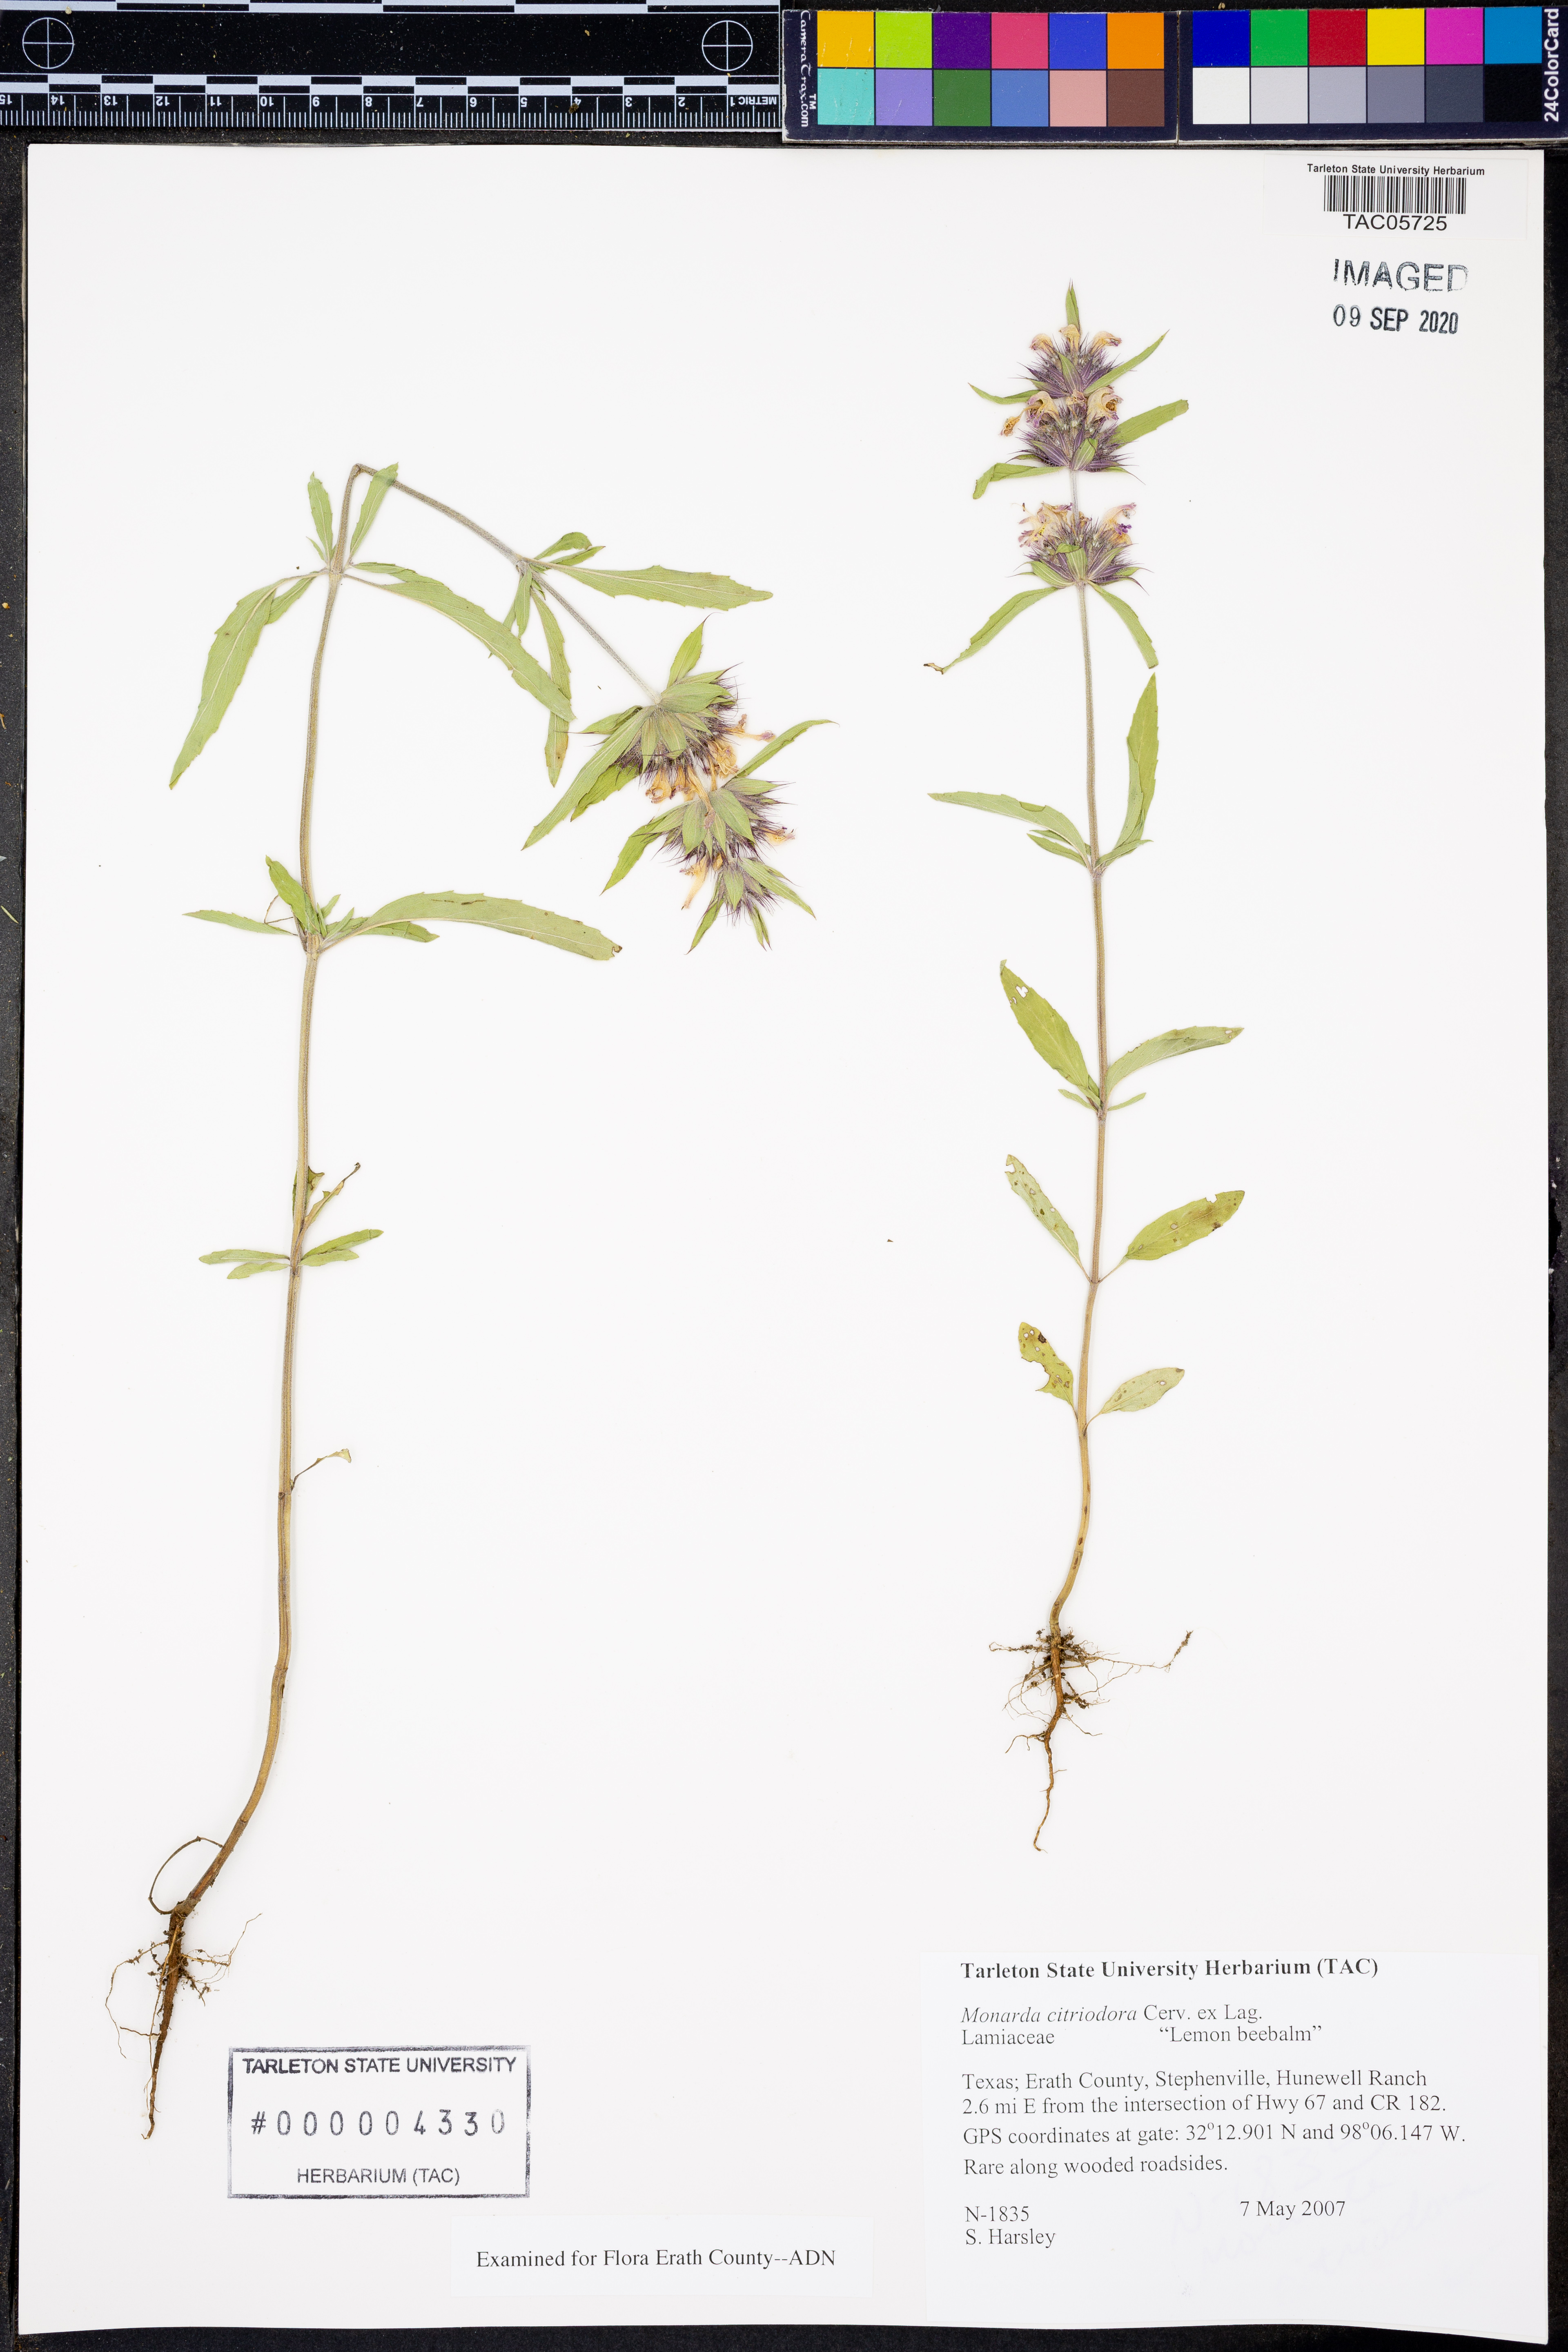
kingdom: Plantae
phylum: Tracheophyta
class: Magnoliopsida
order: Lamiales
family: Lamiaceae
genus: Monarda
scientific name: Monarda citriodora
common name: Lemon beebalm
